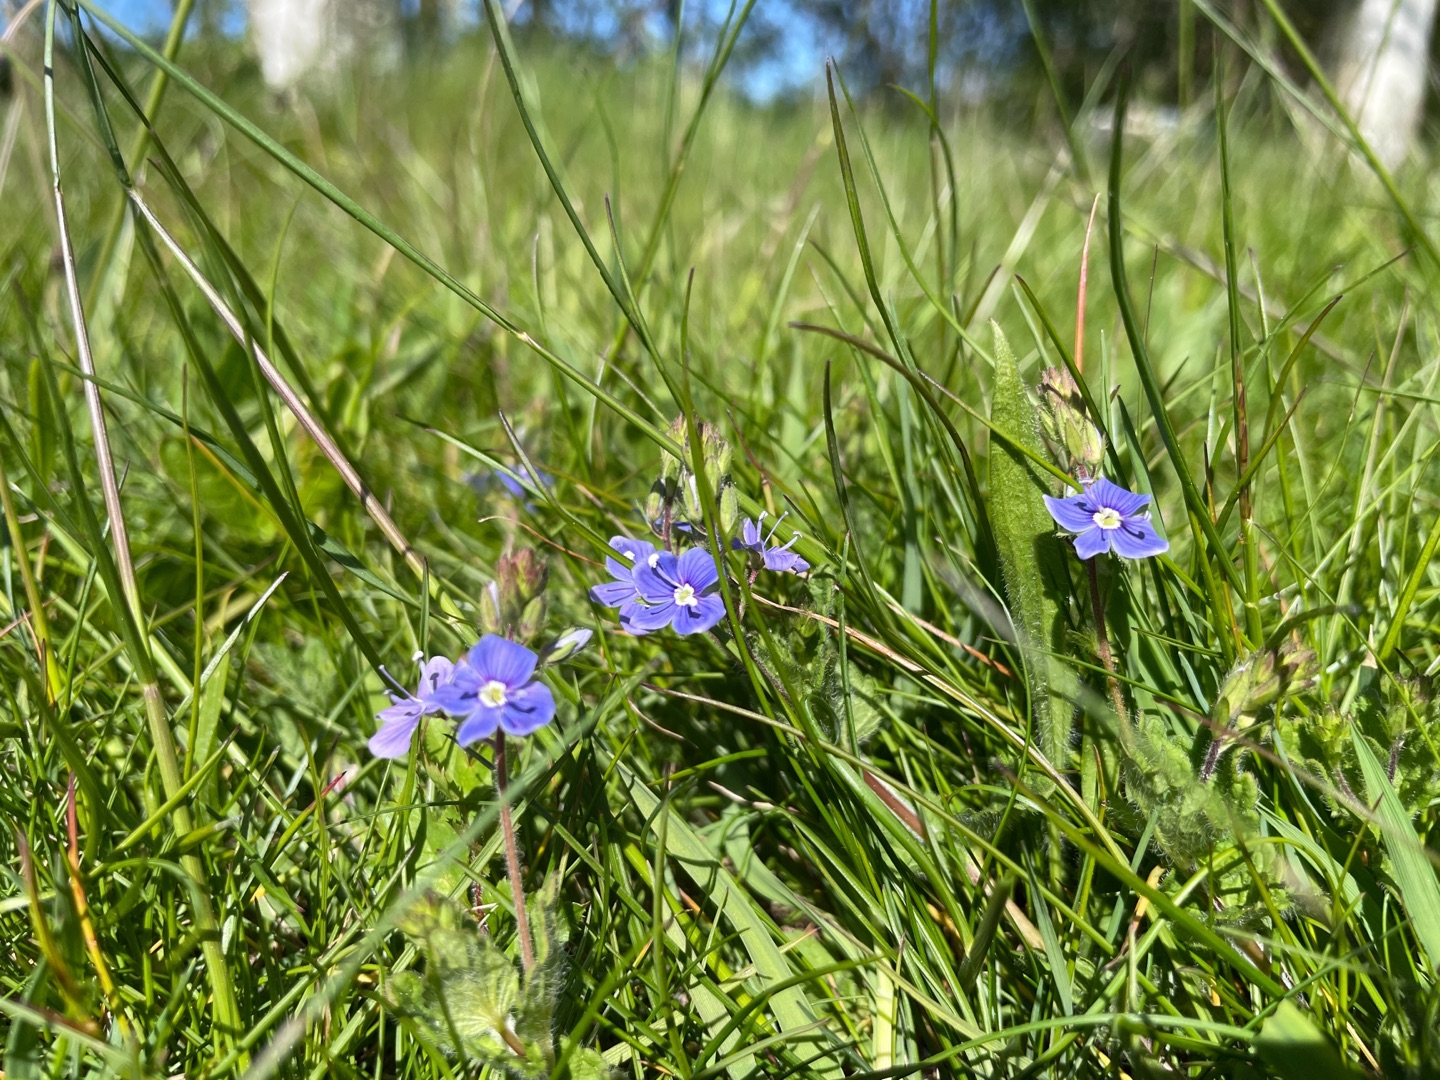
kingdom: Plantae
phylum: Tracheophyta
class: Magnoliopsida
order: Lamiales
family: Plantaginaceae
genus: Veronica
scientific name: Veronica chamaedrys
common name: Tveskægget ærenpris
